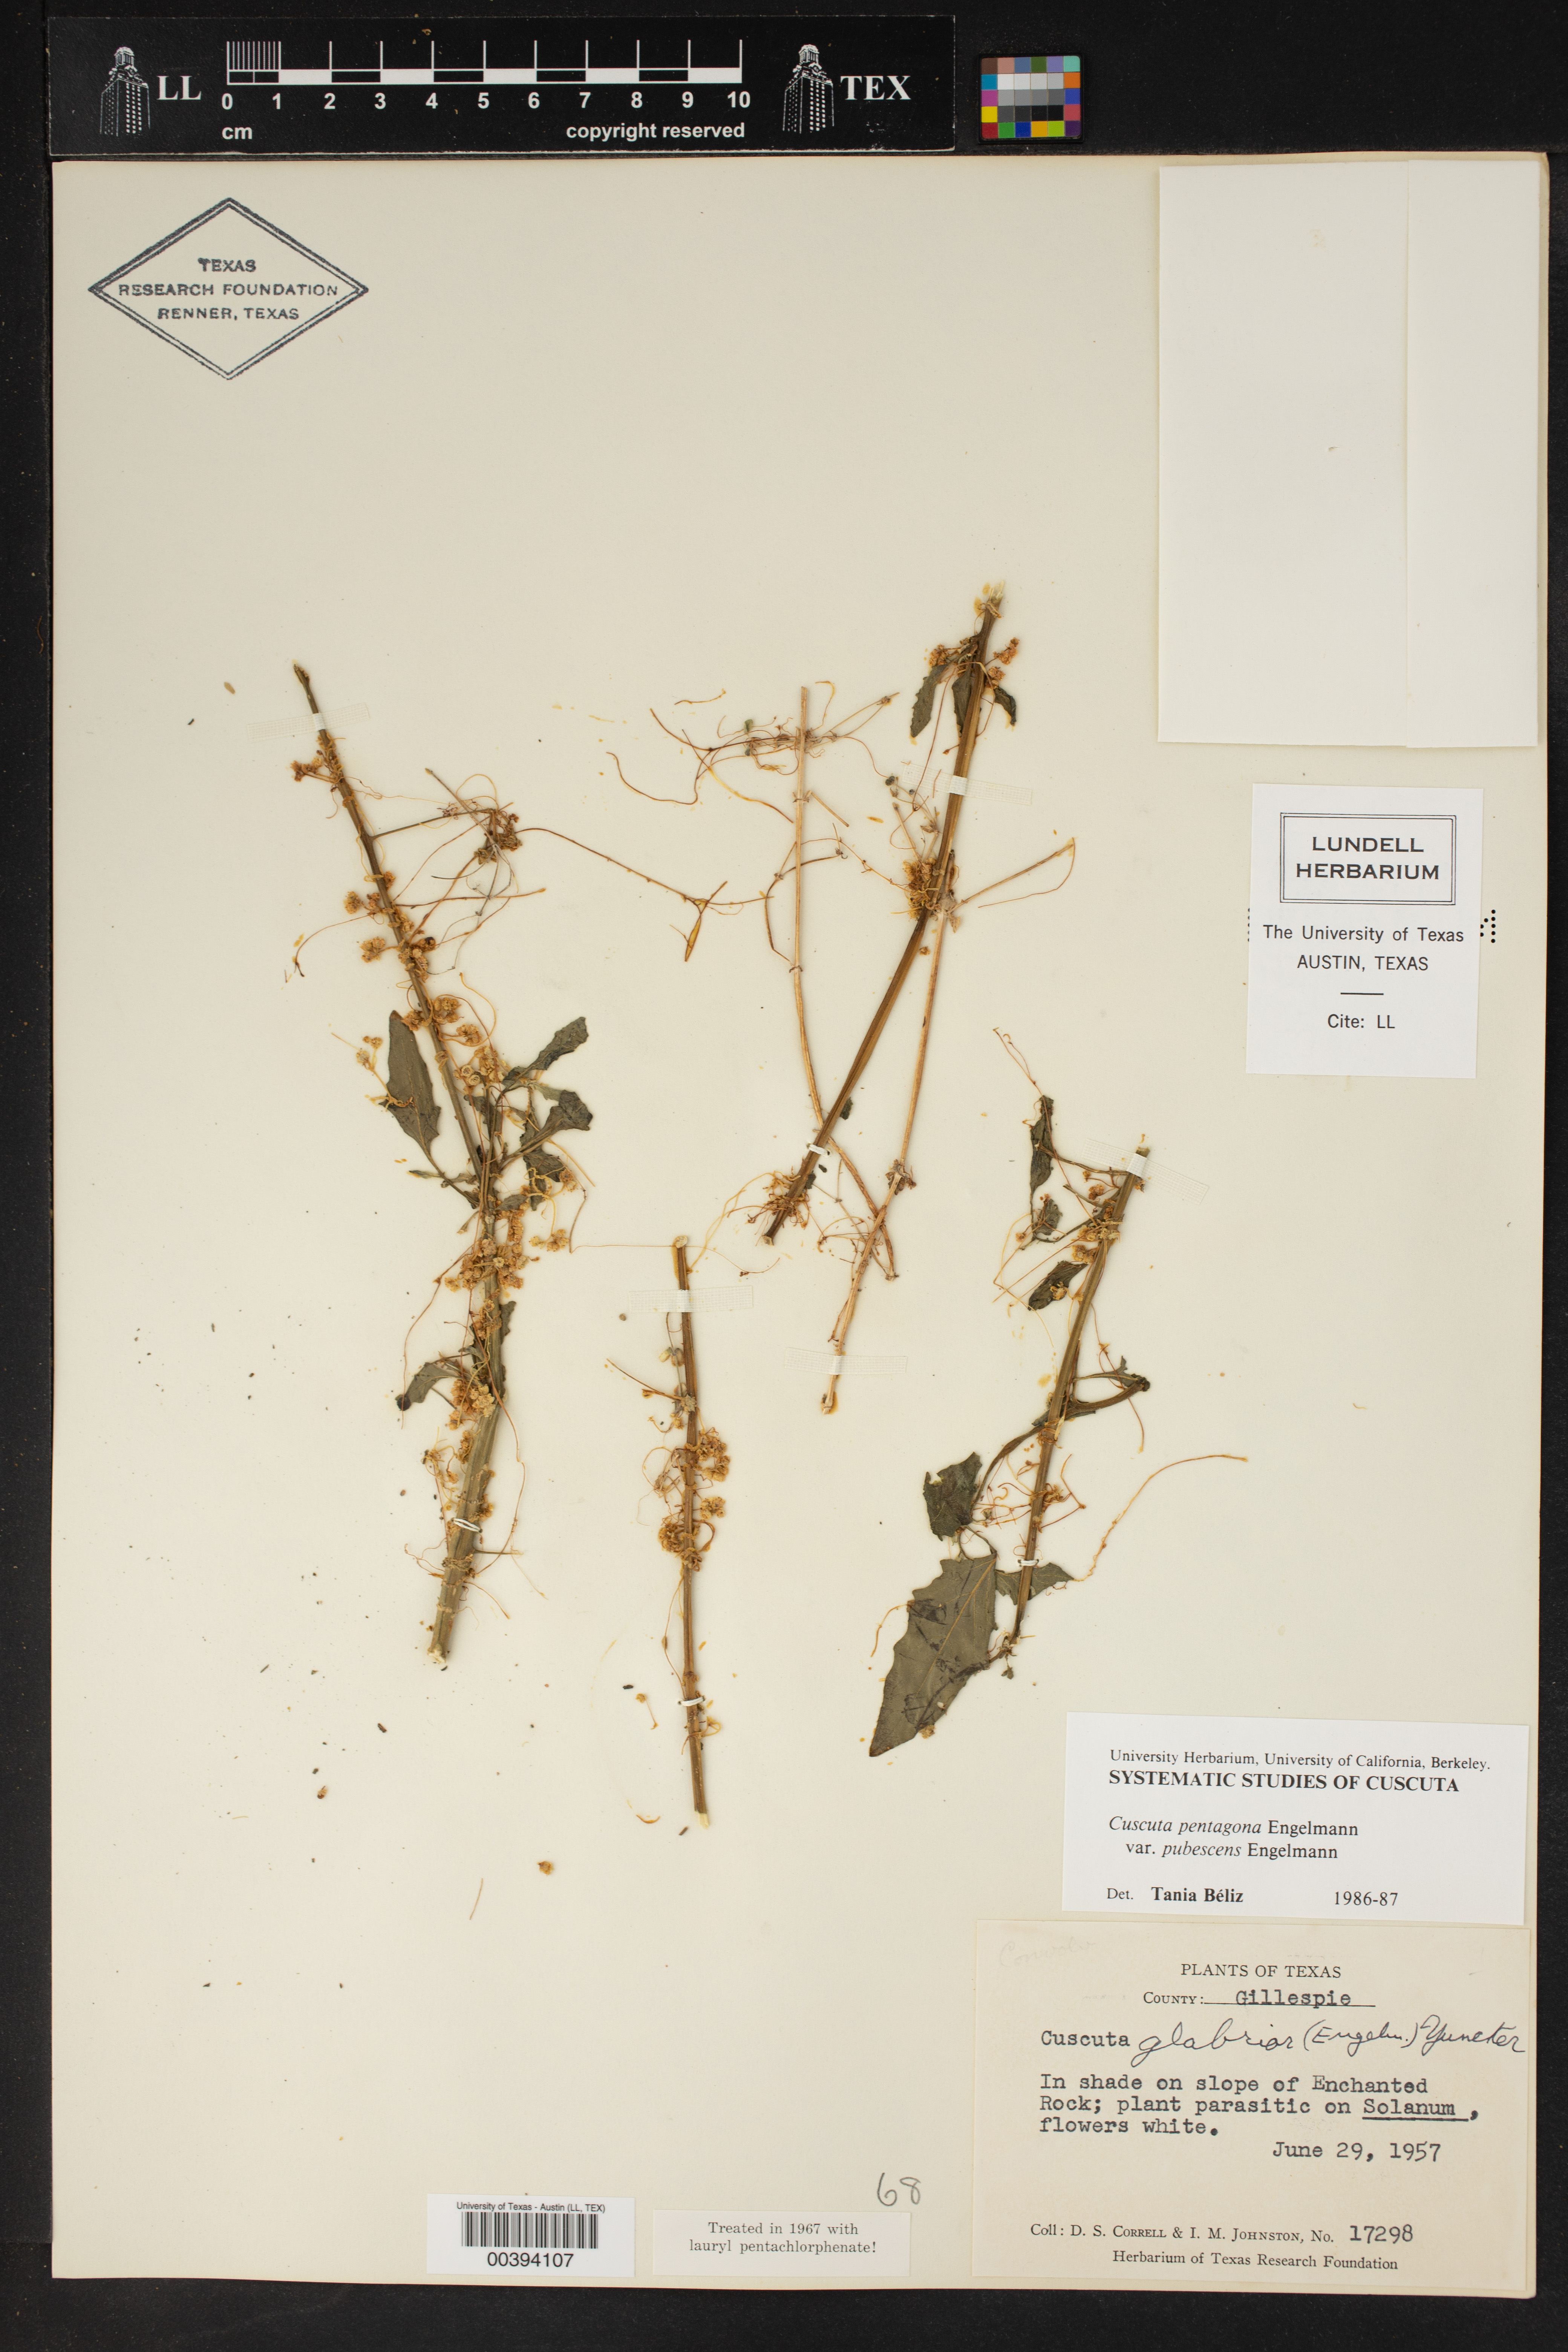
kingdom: Plantae
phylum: Tracheophyta
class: Magnoliopsida
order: Solanales
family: Convolvulaceae
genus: Cuscuta
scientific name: Cuscuta glabrior
